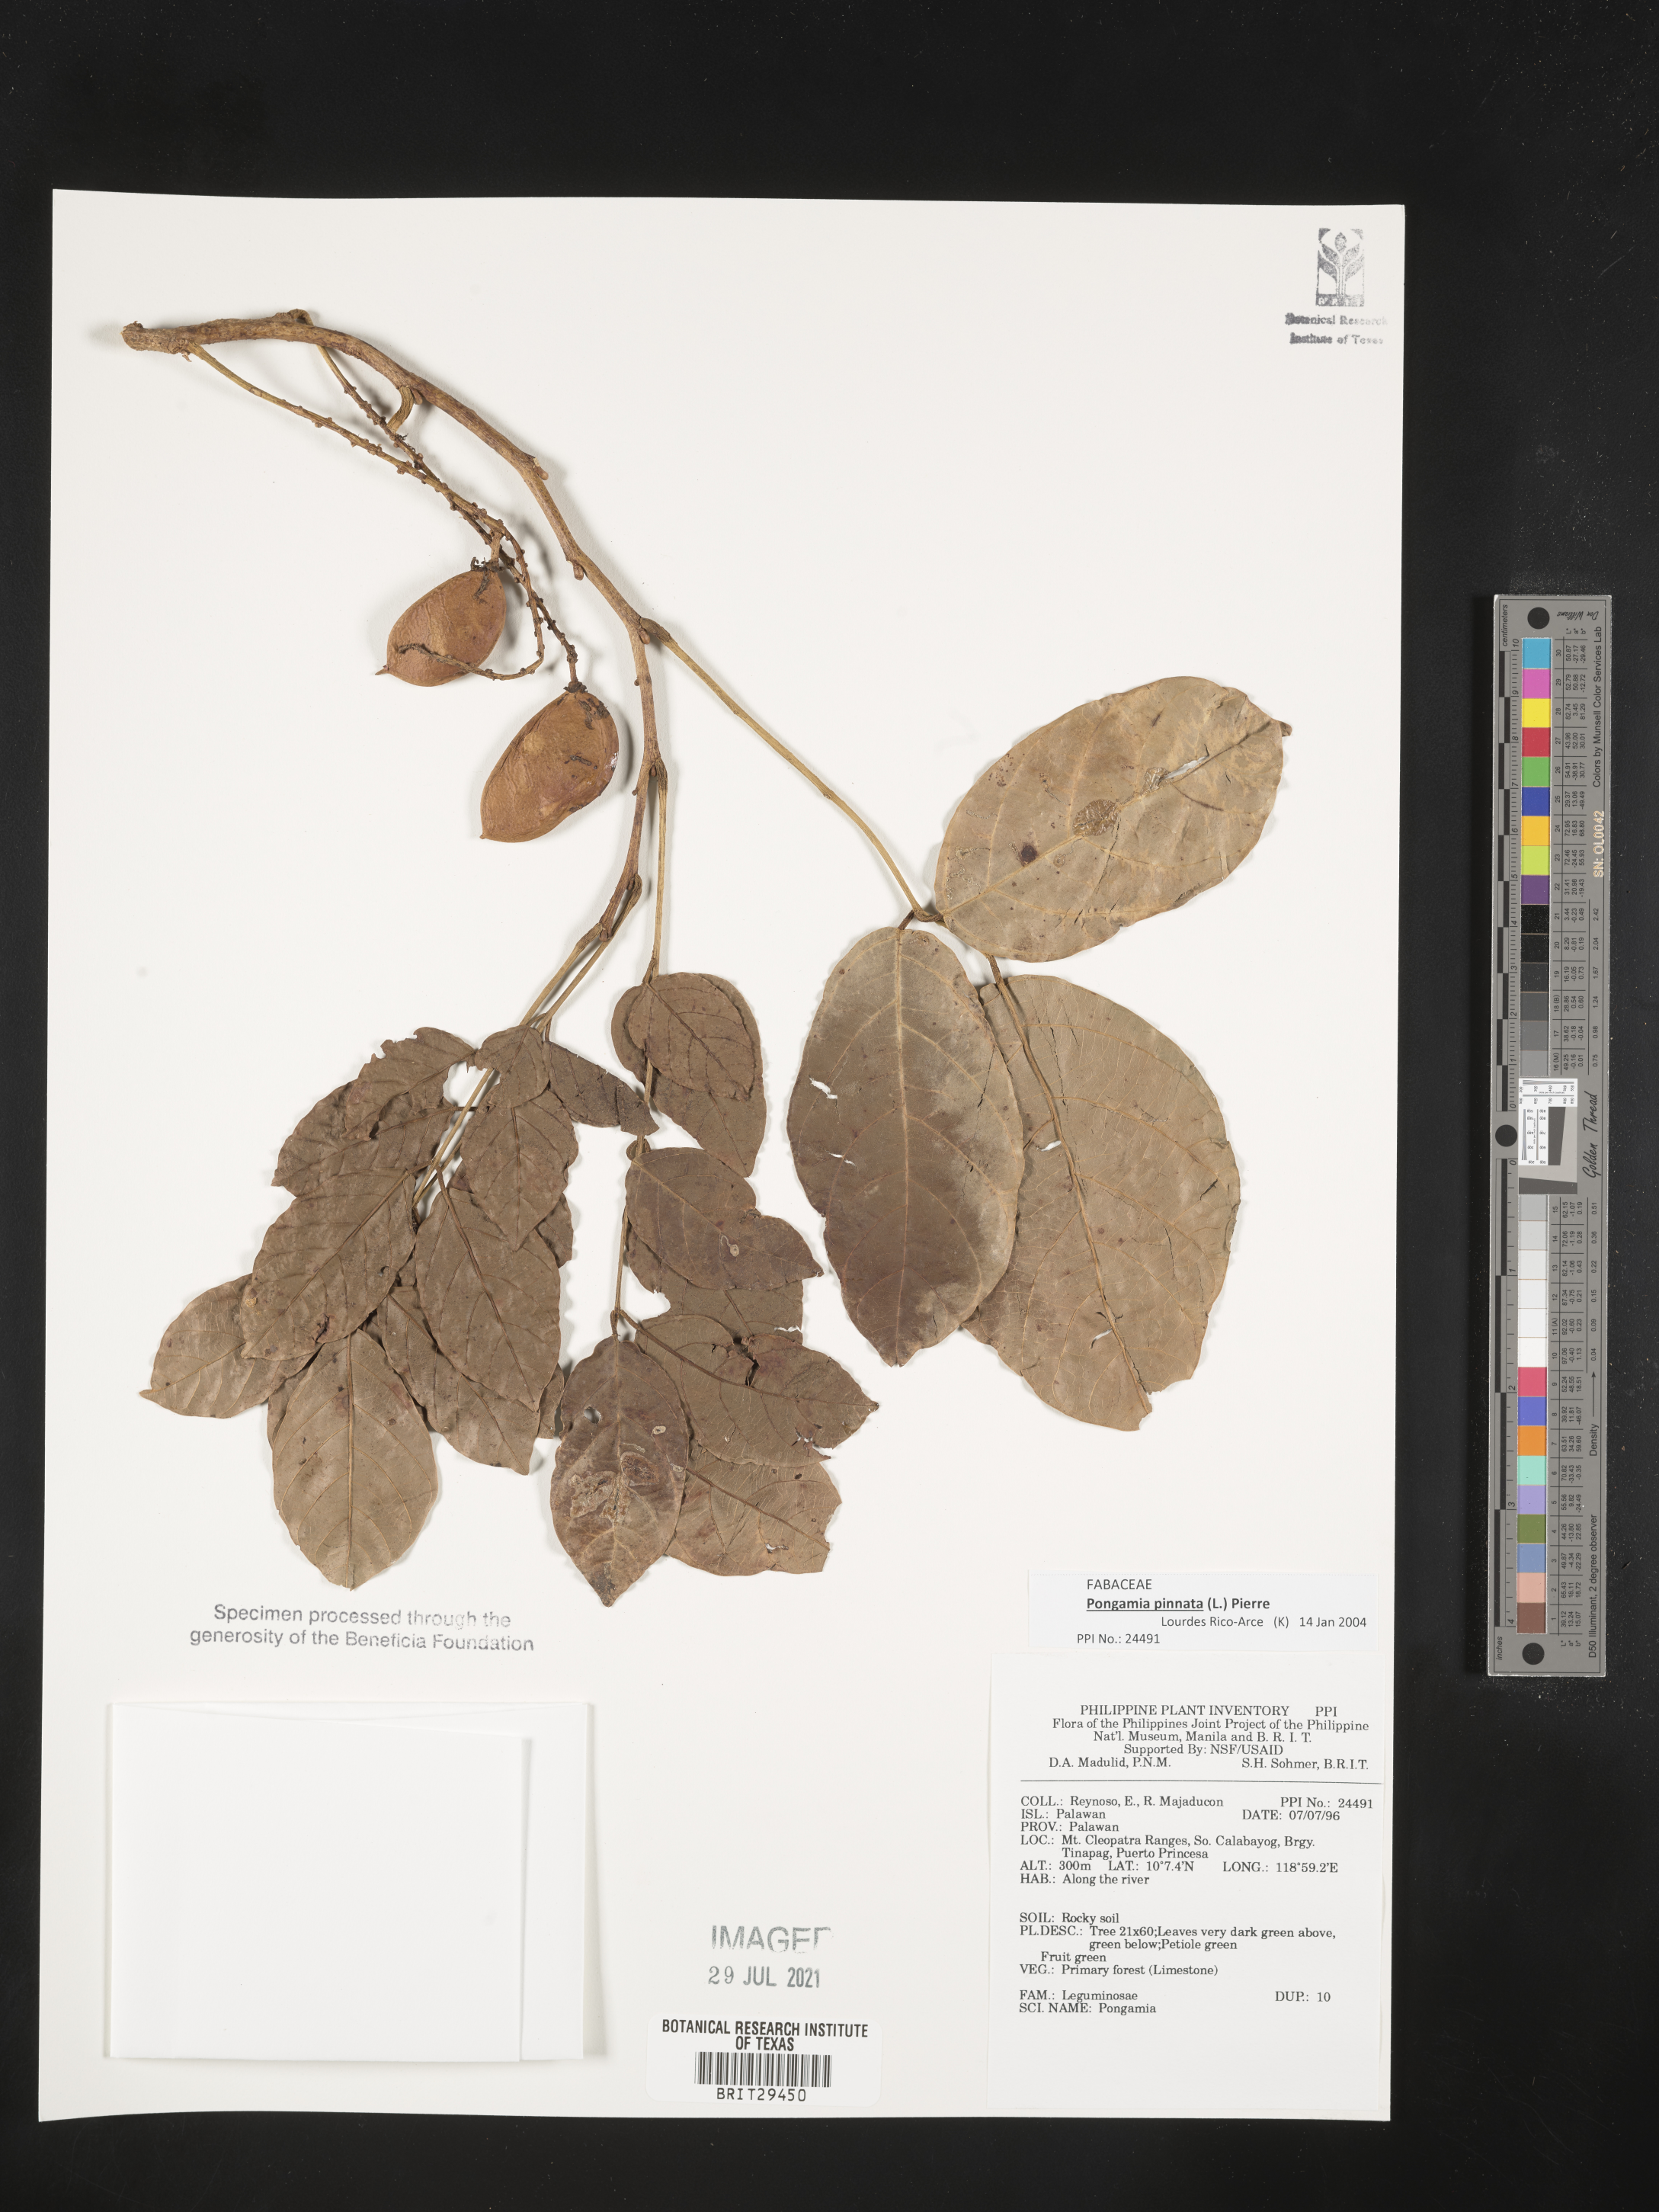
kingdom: Plantae
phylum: Tracheophyta
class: Magnoliopsida
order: Fabales
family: Fabaceae
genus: Pongamia
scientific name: Pongamia pinnata
